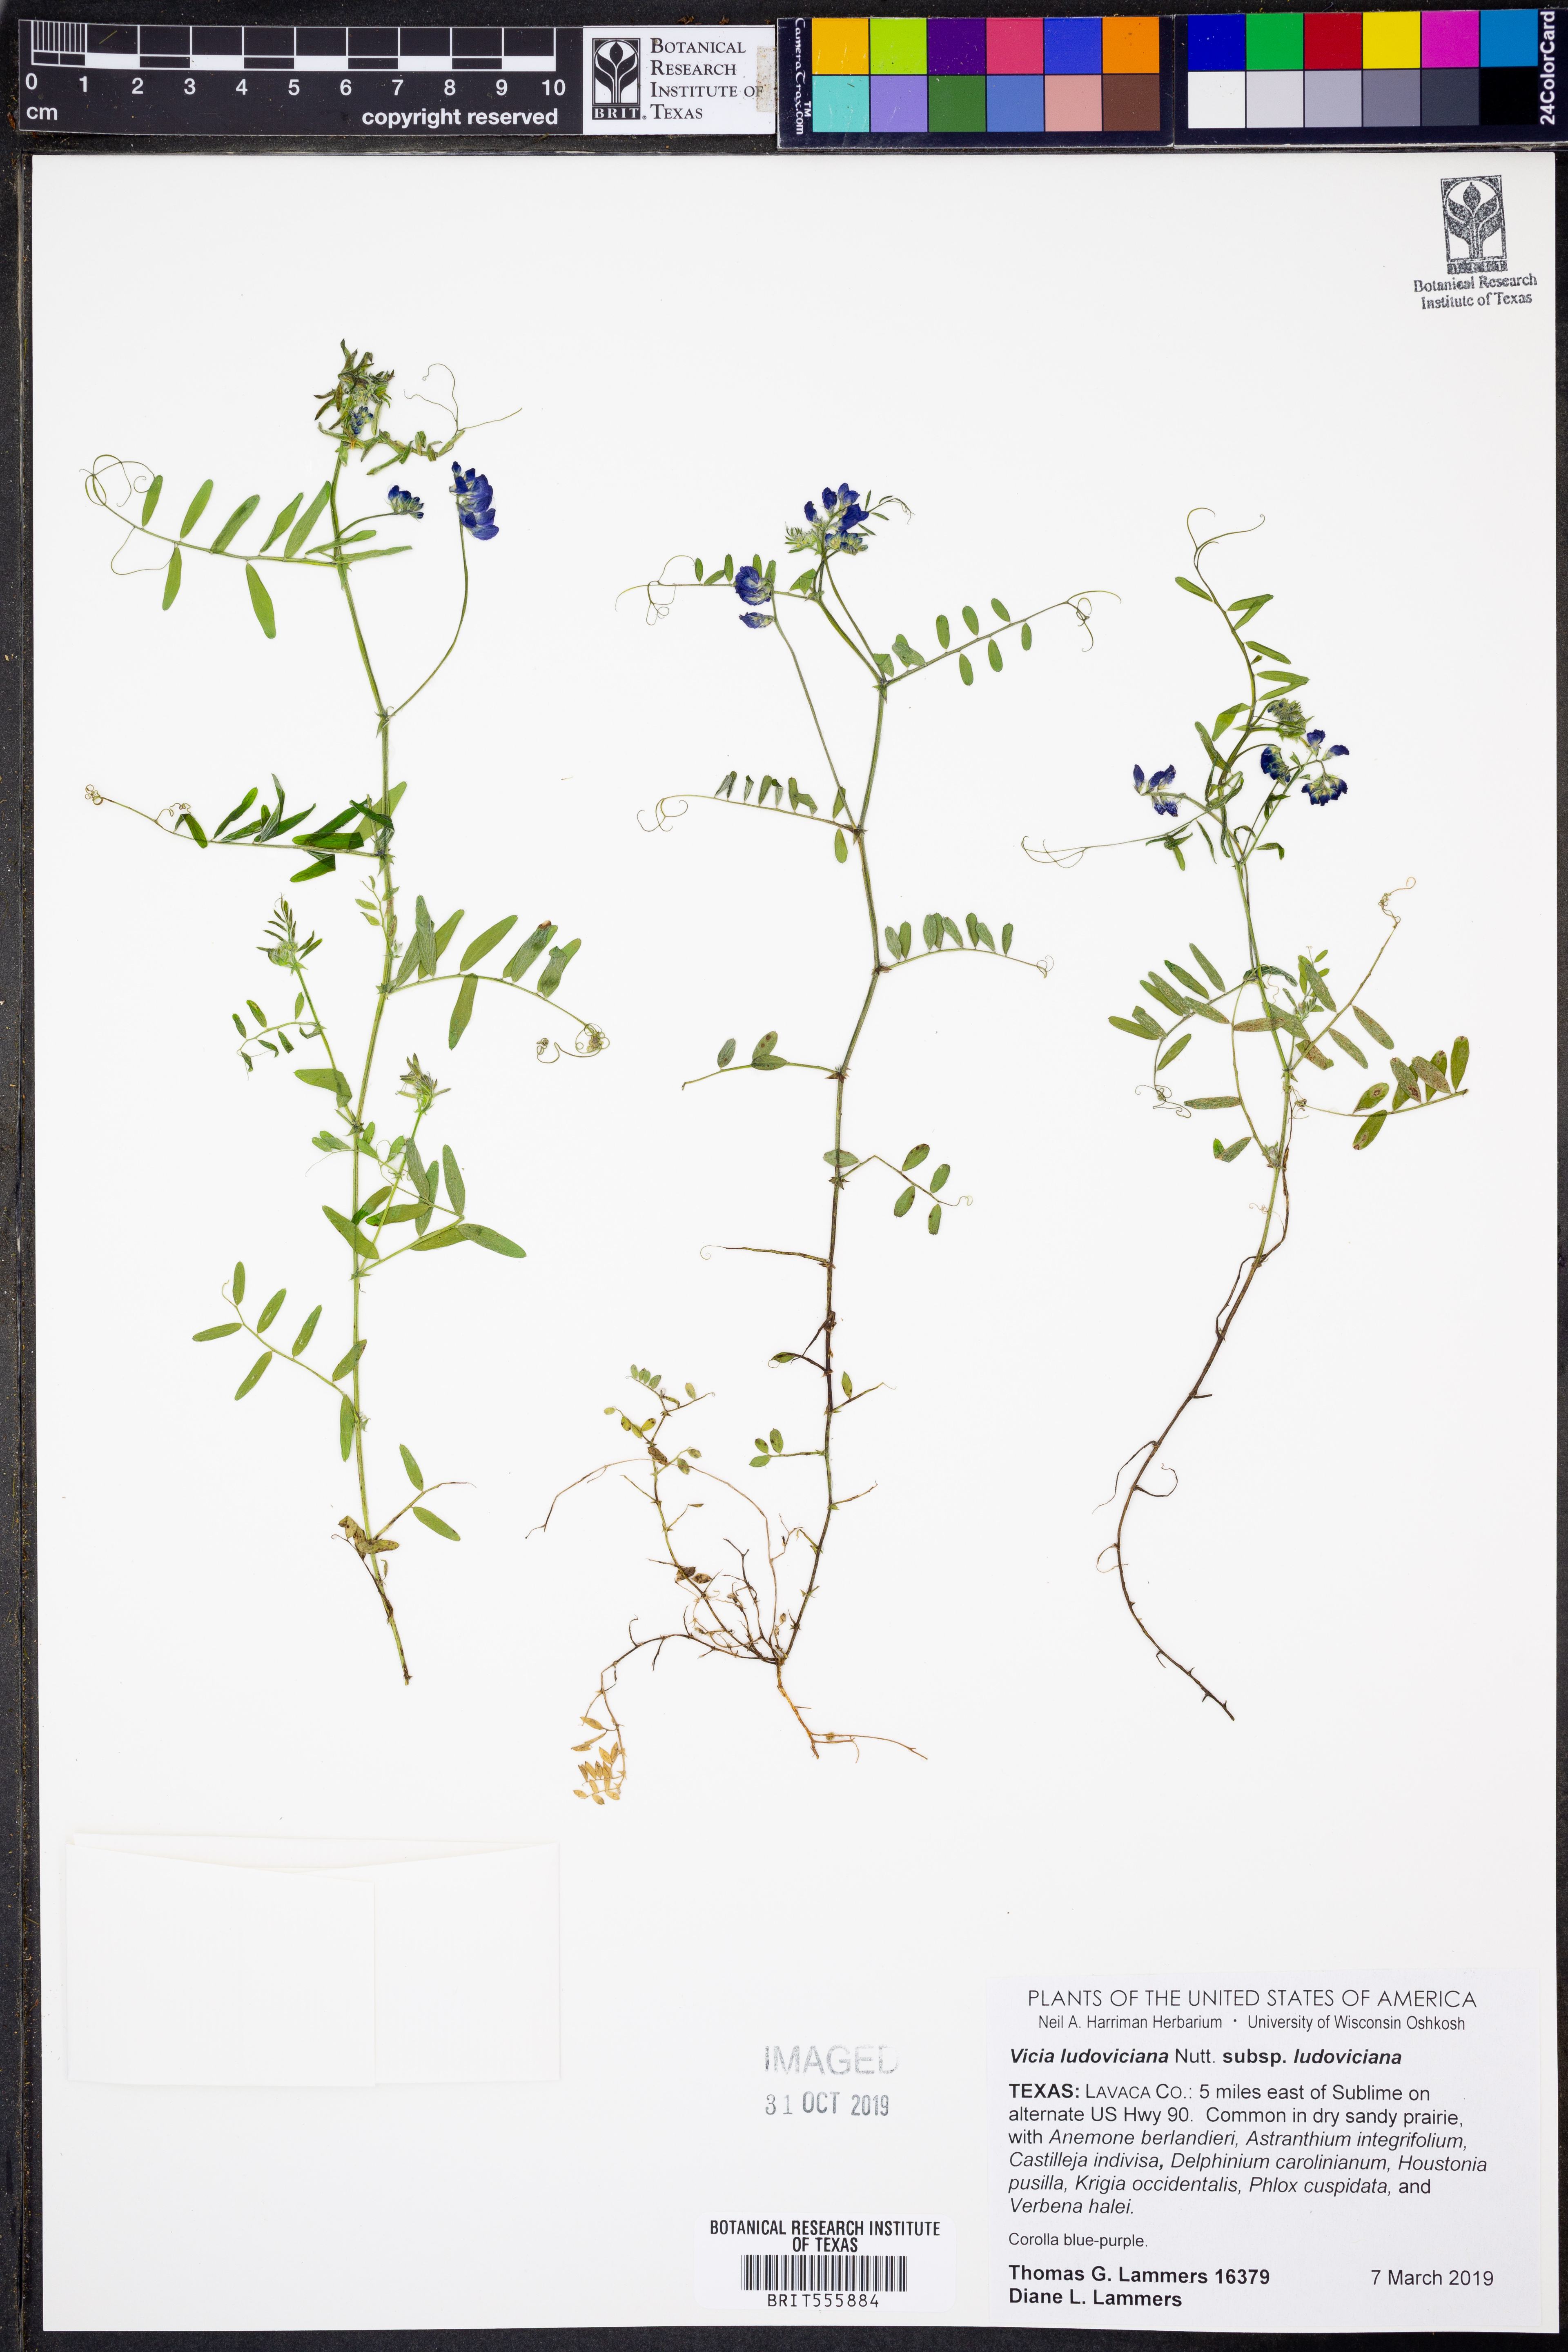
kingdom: Plantae
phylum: Tracheophyta
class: Magnoliopsida
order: Fabales
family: Fabaceae
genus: Vicia
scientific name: Vicia ludoviciana
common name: Louisiana vetch
